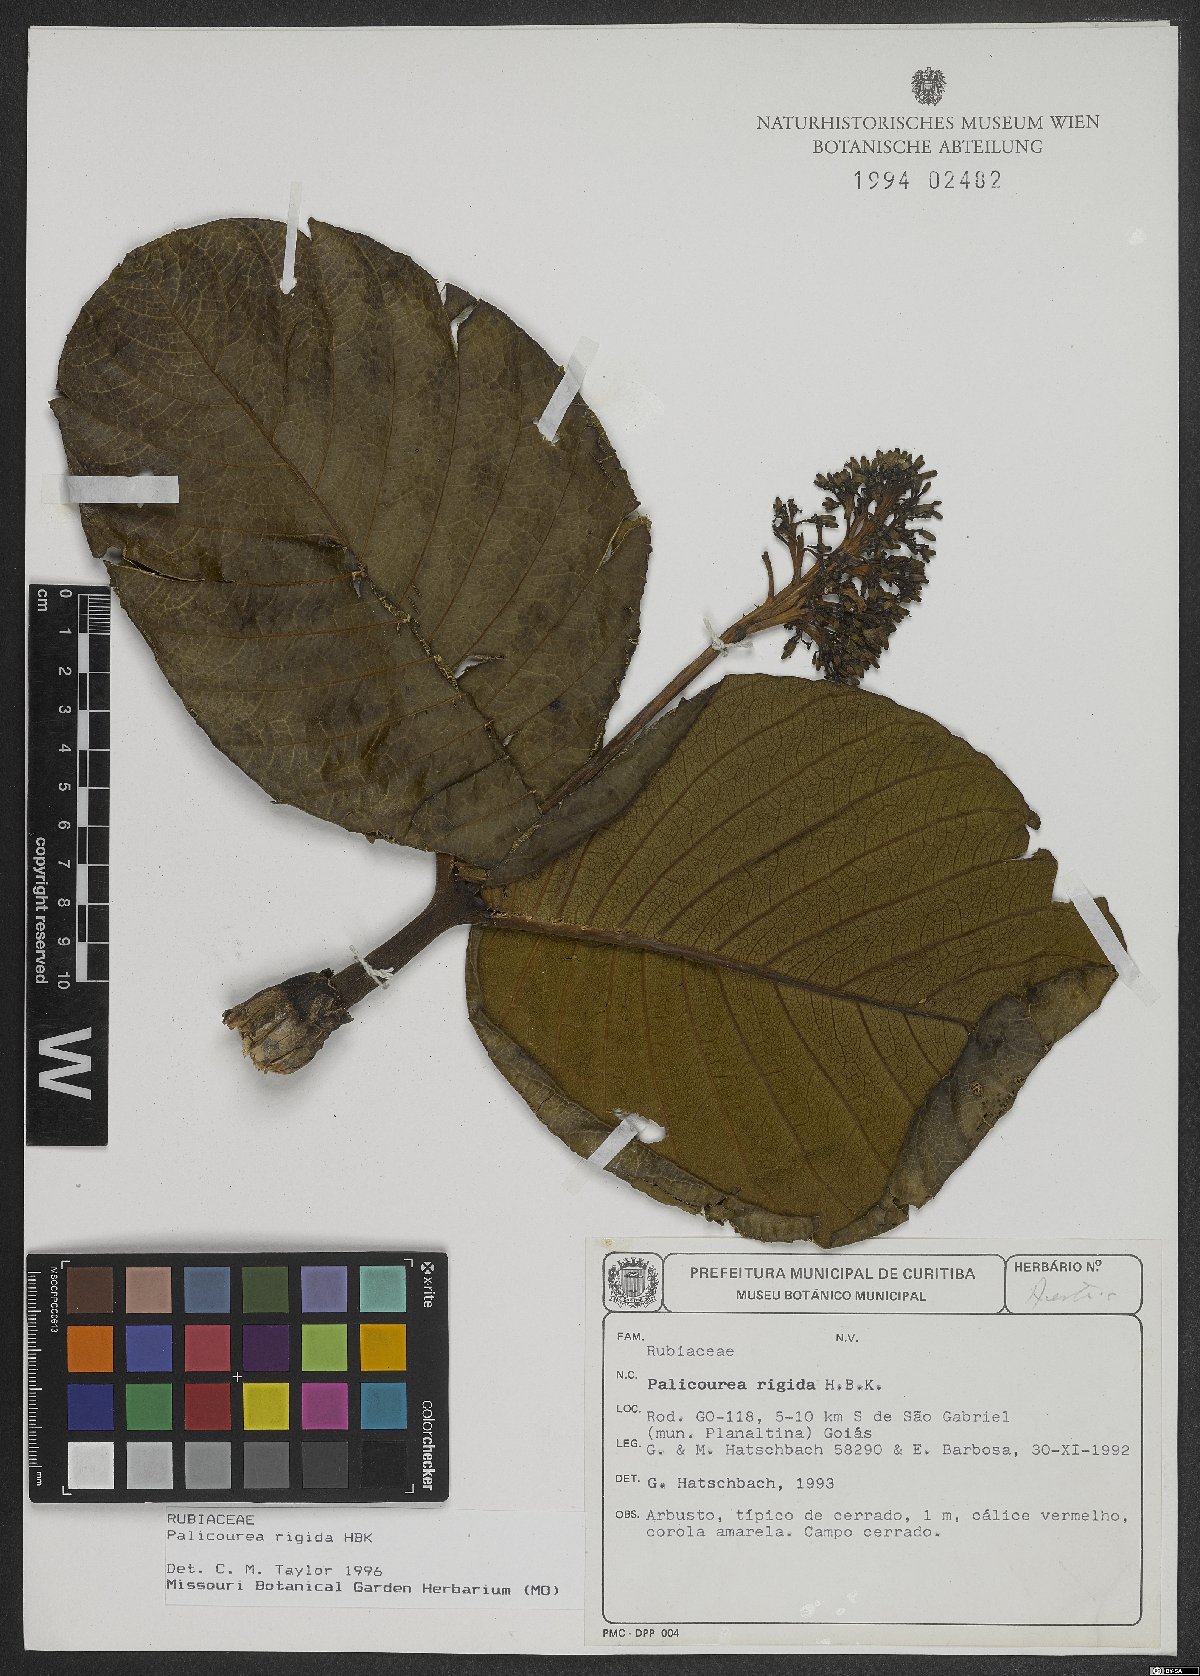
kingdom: Plantae
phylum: Tracheophyta
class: Magnoliopsida
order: Gentianales
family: Rubiaceae
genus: Palicourea
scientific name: Palicourea rigida
